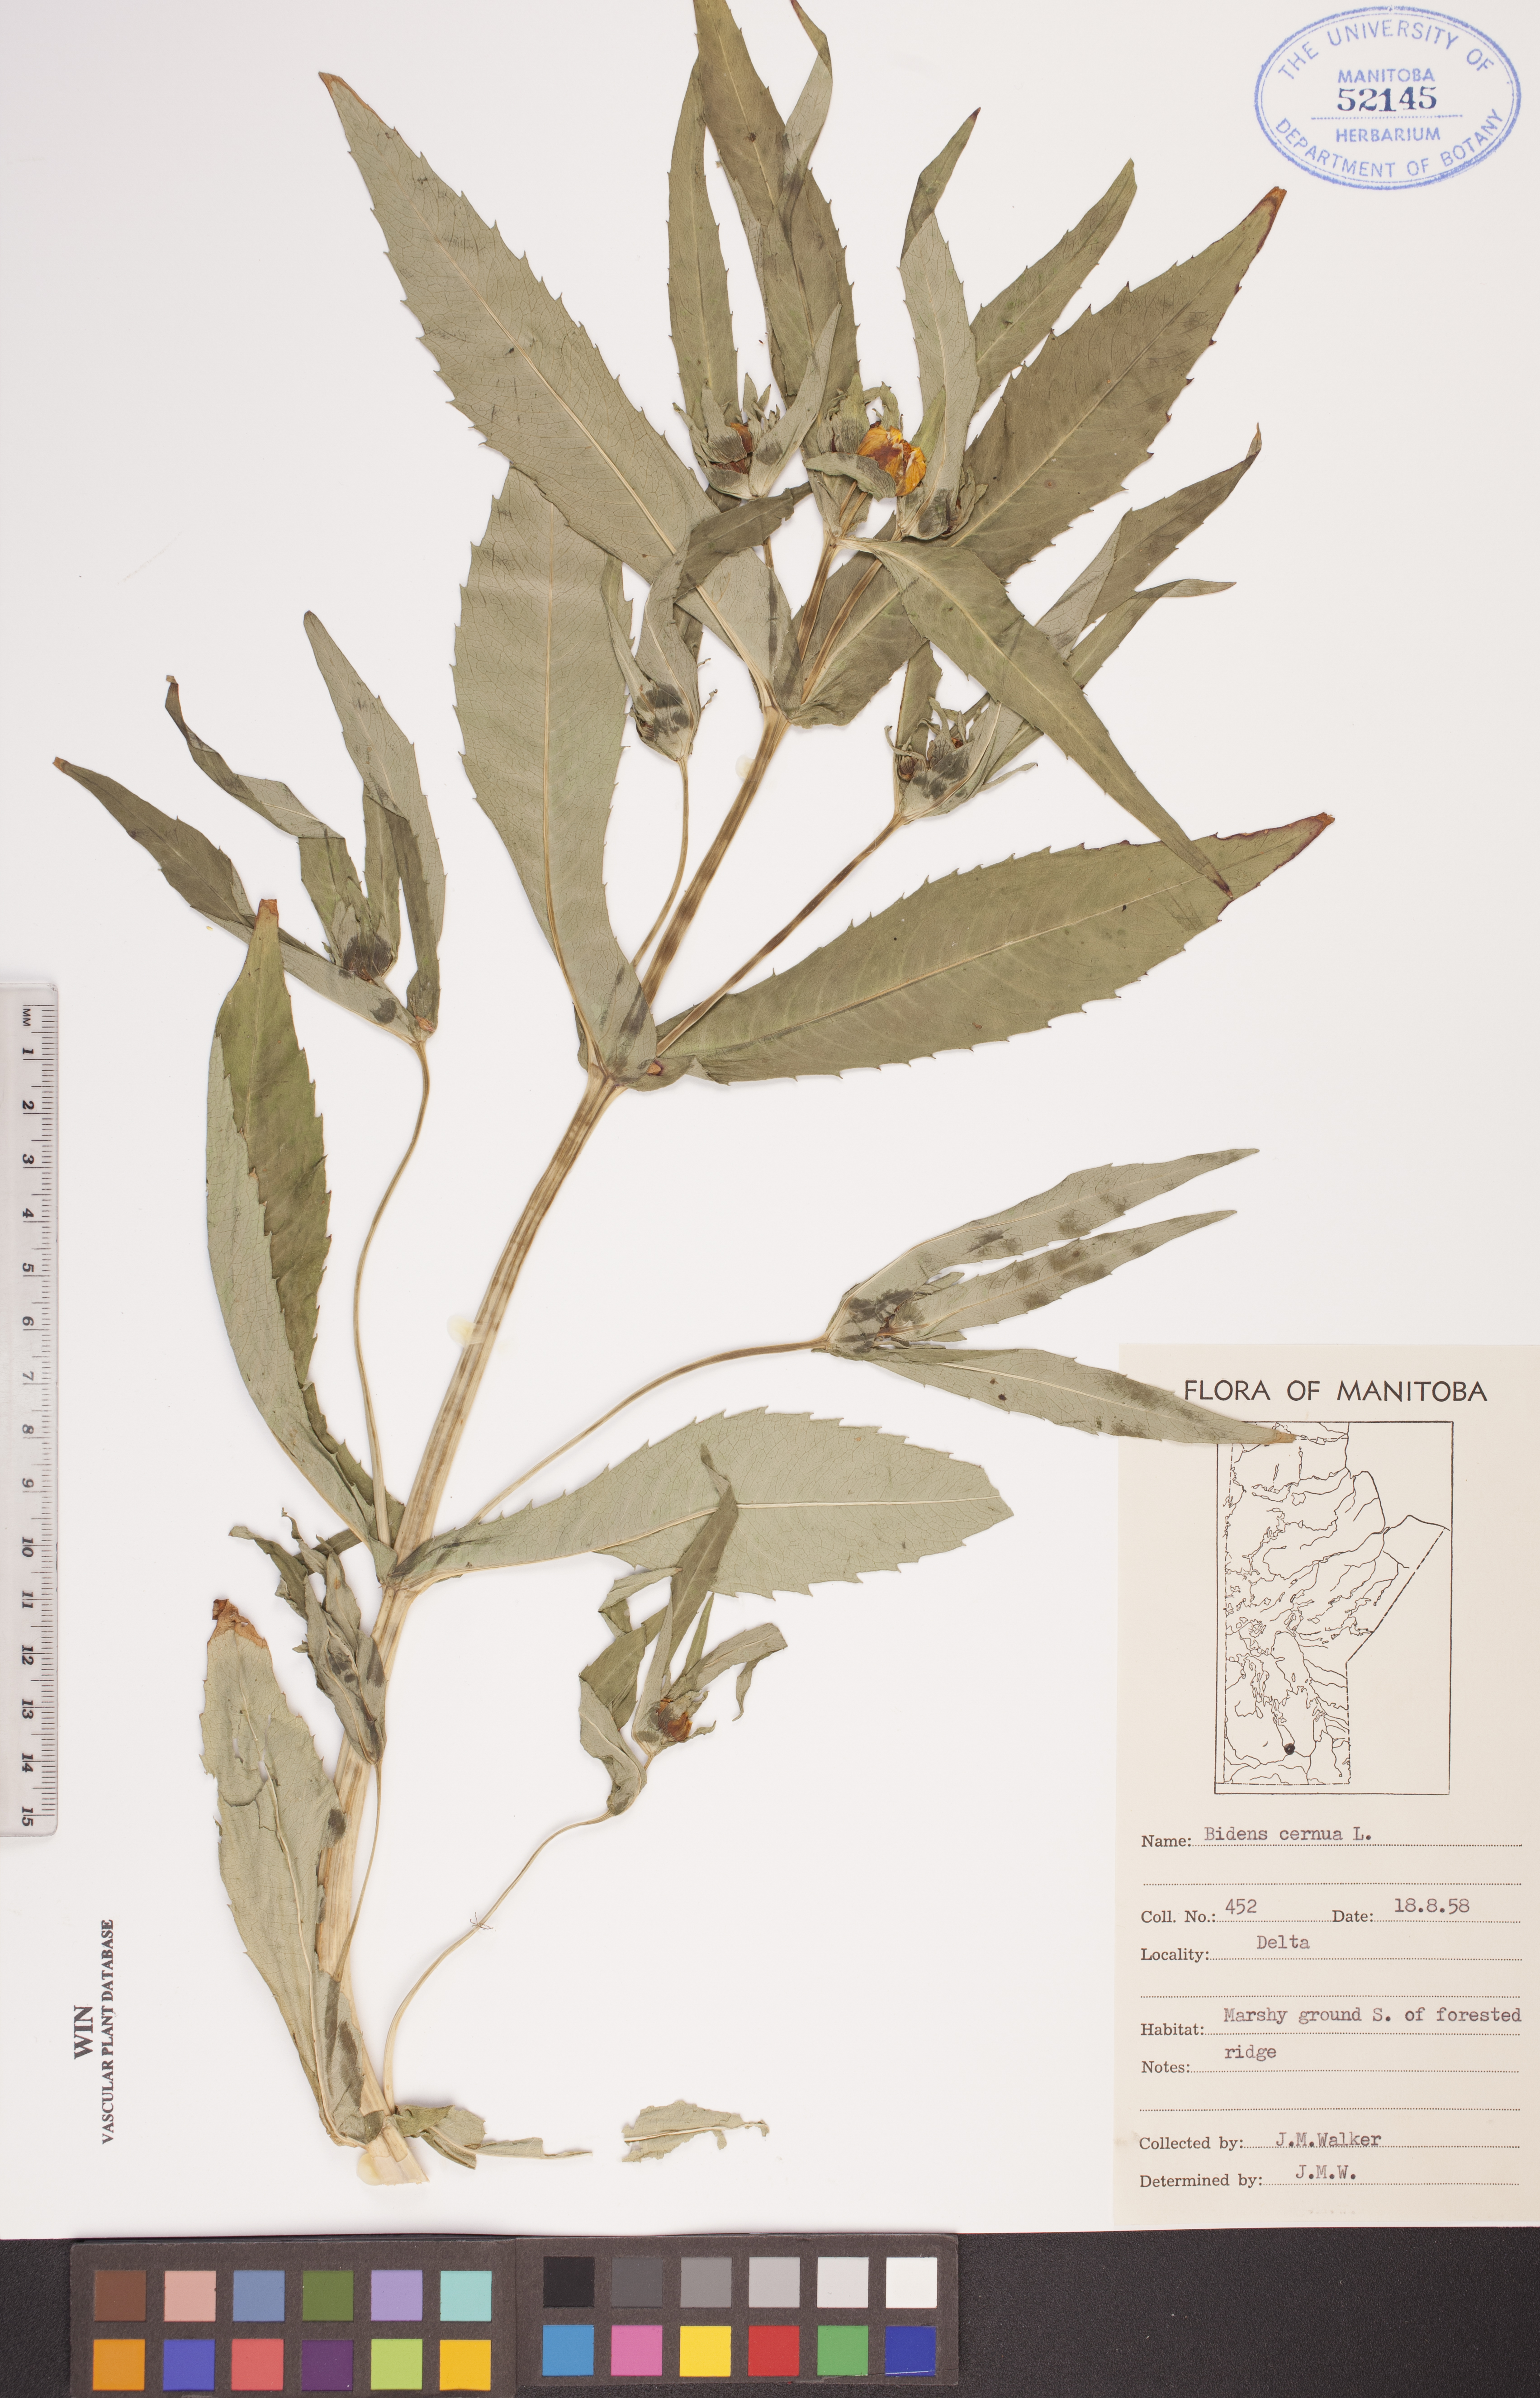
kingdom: Plantae
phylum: Tracheophyta
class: Magnoliopsida
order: Asterales
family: Asteraceae
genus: Bidens
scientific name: Bidens cernua
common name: Nodding bur-marigold
